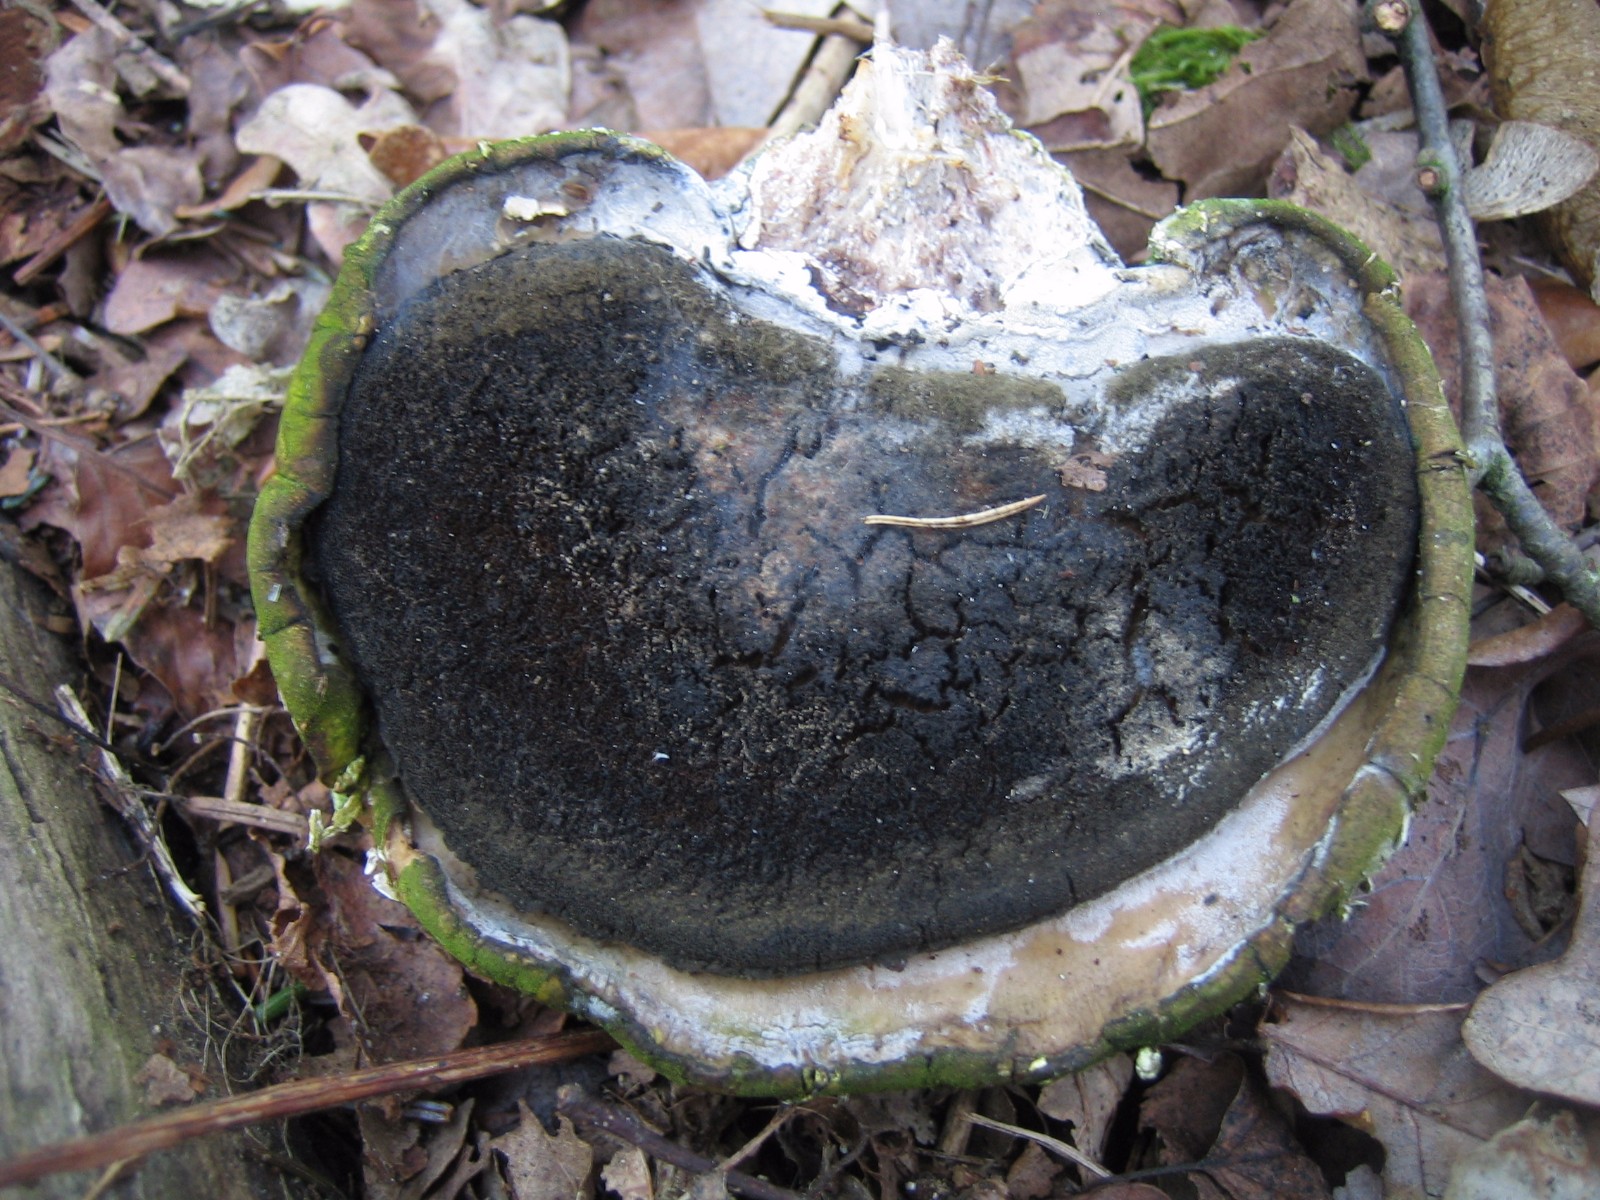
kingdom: Fungi
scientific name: Fungi
